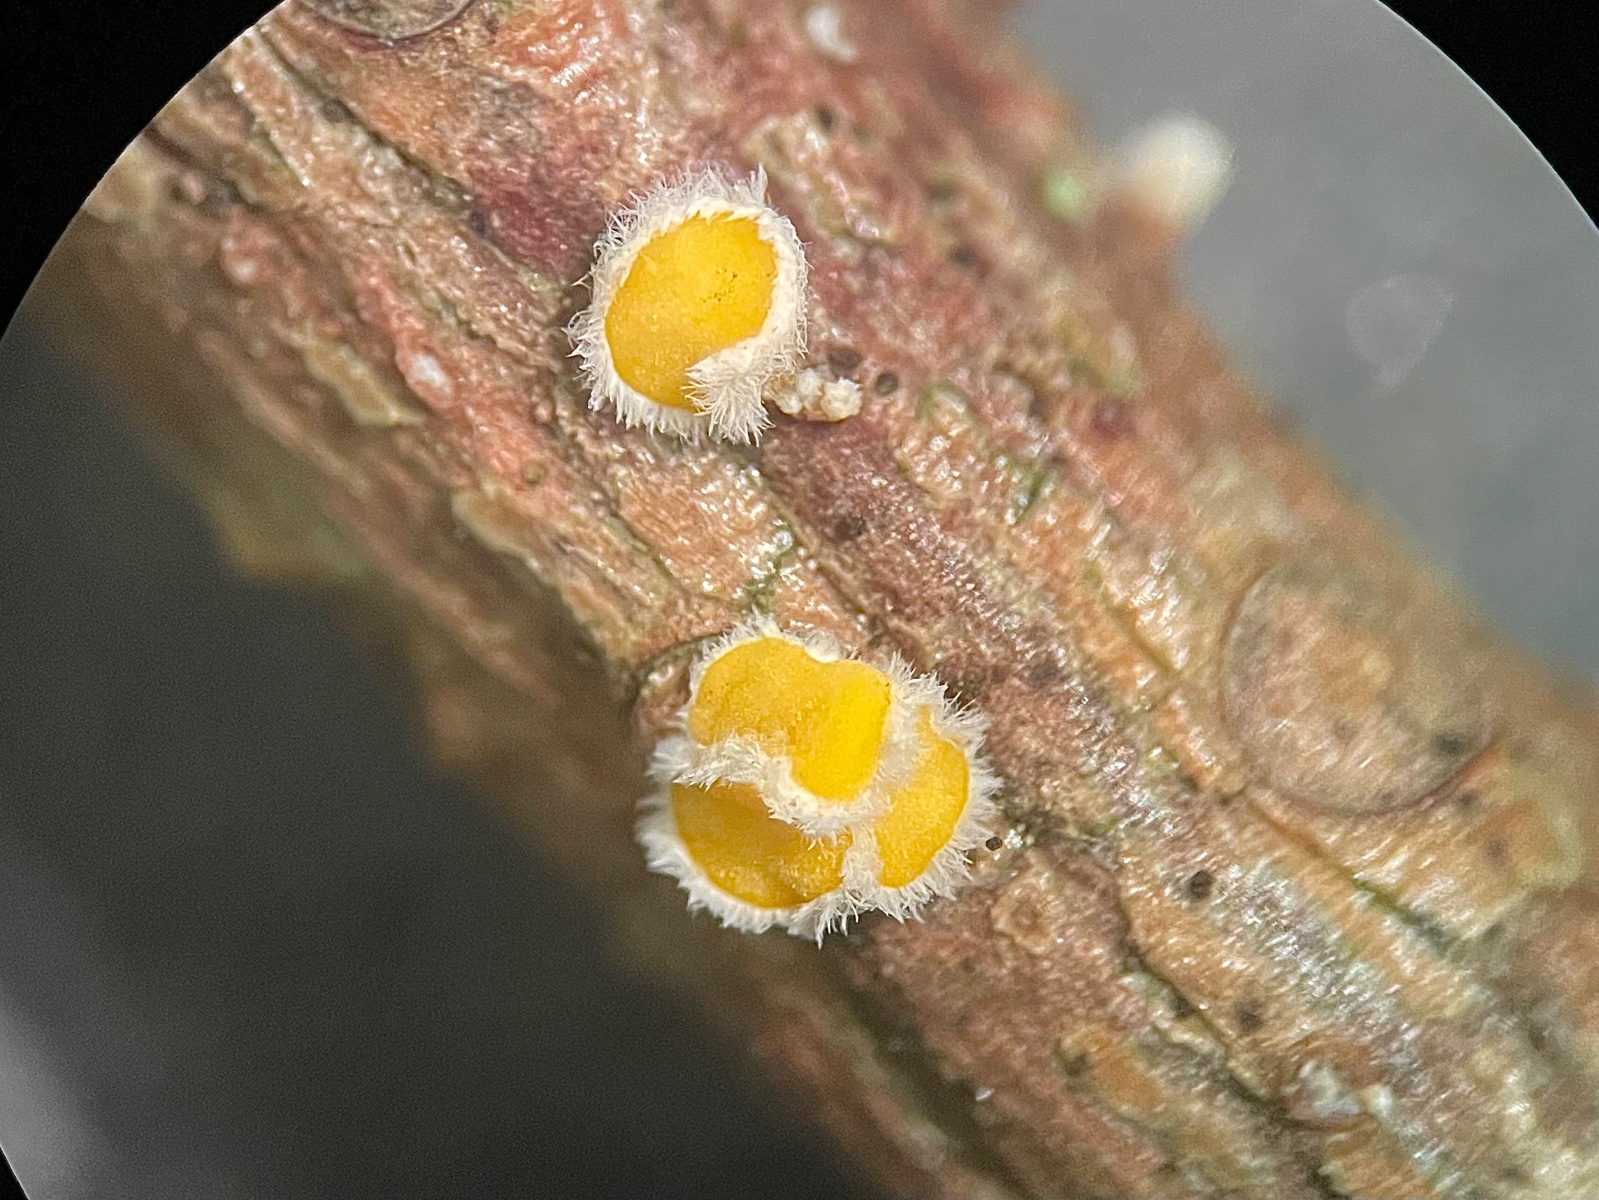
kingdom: Fungi
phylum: Ascomycota
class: Leotiomycetes
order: Helotiales
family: Lachnaceae
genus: Lachnellula
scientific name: Lachnellula
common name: frynseskive
